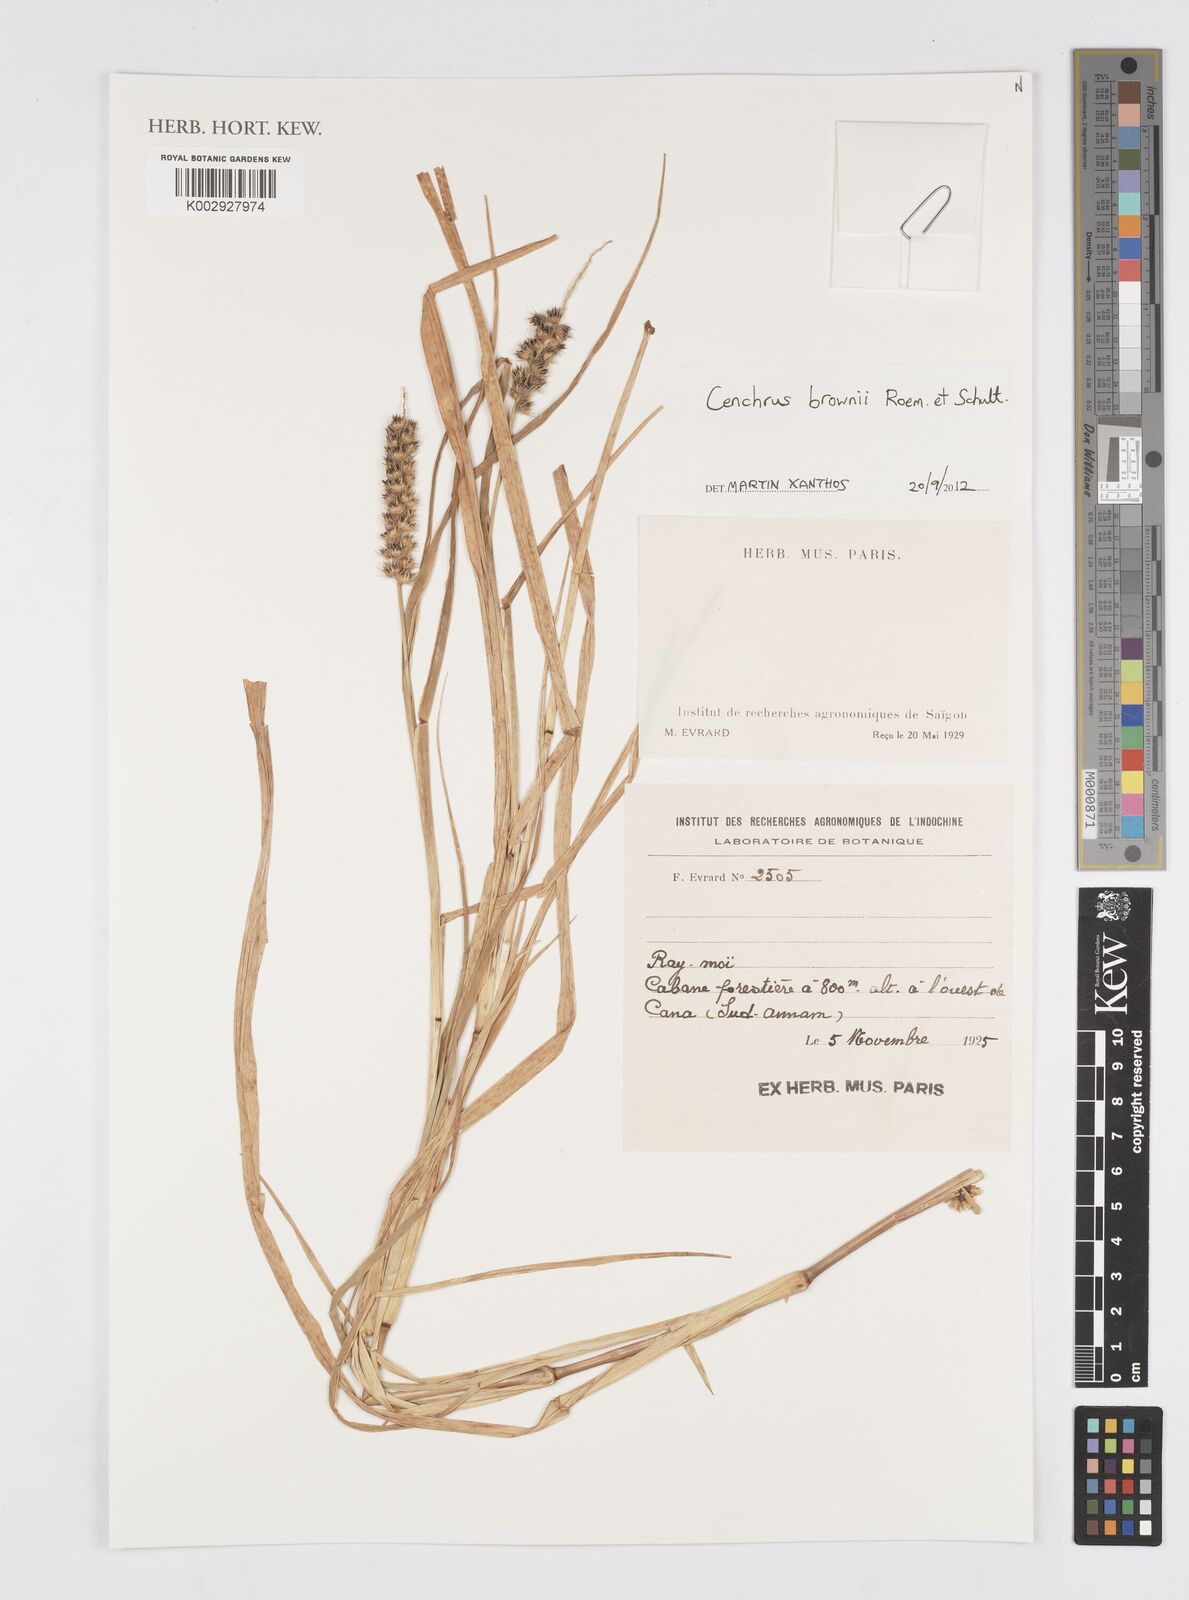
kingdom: Plantae
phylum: Tracheophyta
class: Liliopsida
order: Poales
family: Poaceae
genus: Cenchrus
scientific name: Cenchrus brownii
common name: Slim-bristle sandbur
